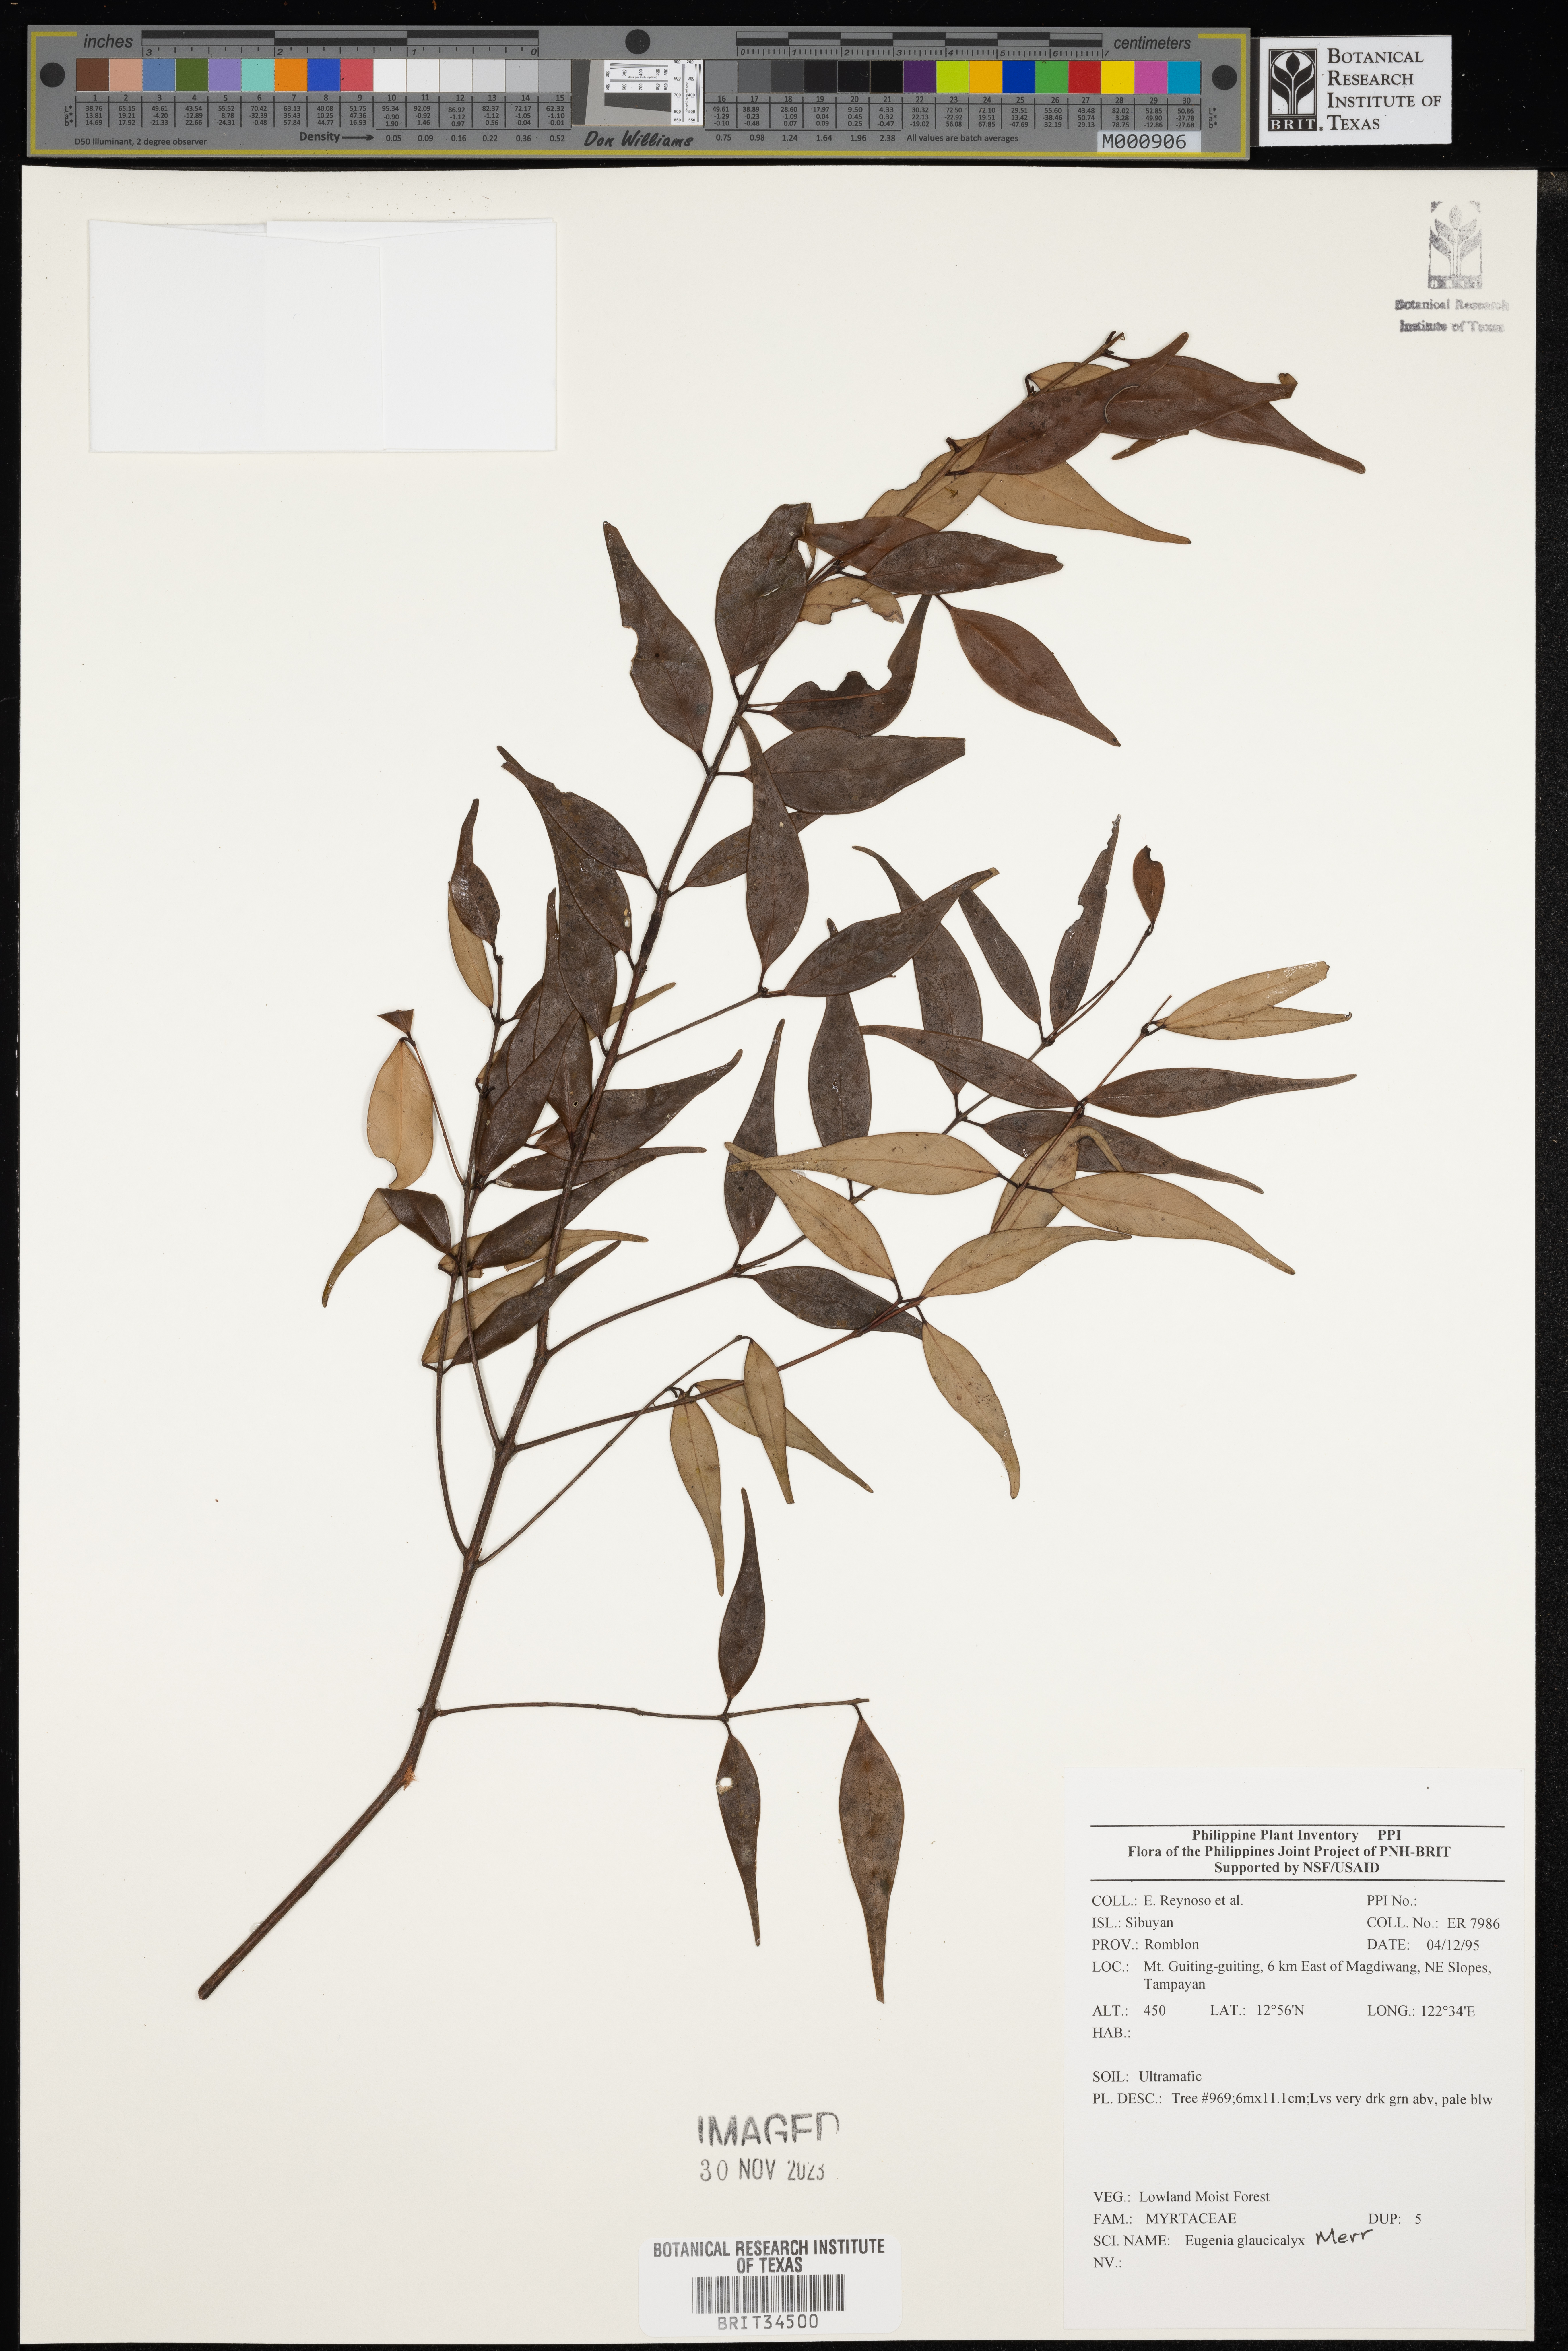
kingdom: Plantae
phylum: Tracheophyta
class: Magnoliopsida
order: Myrtales
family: Myrtaceae
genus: Eugenia
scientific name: Eugenia
